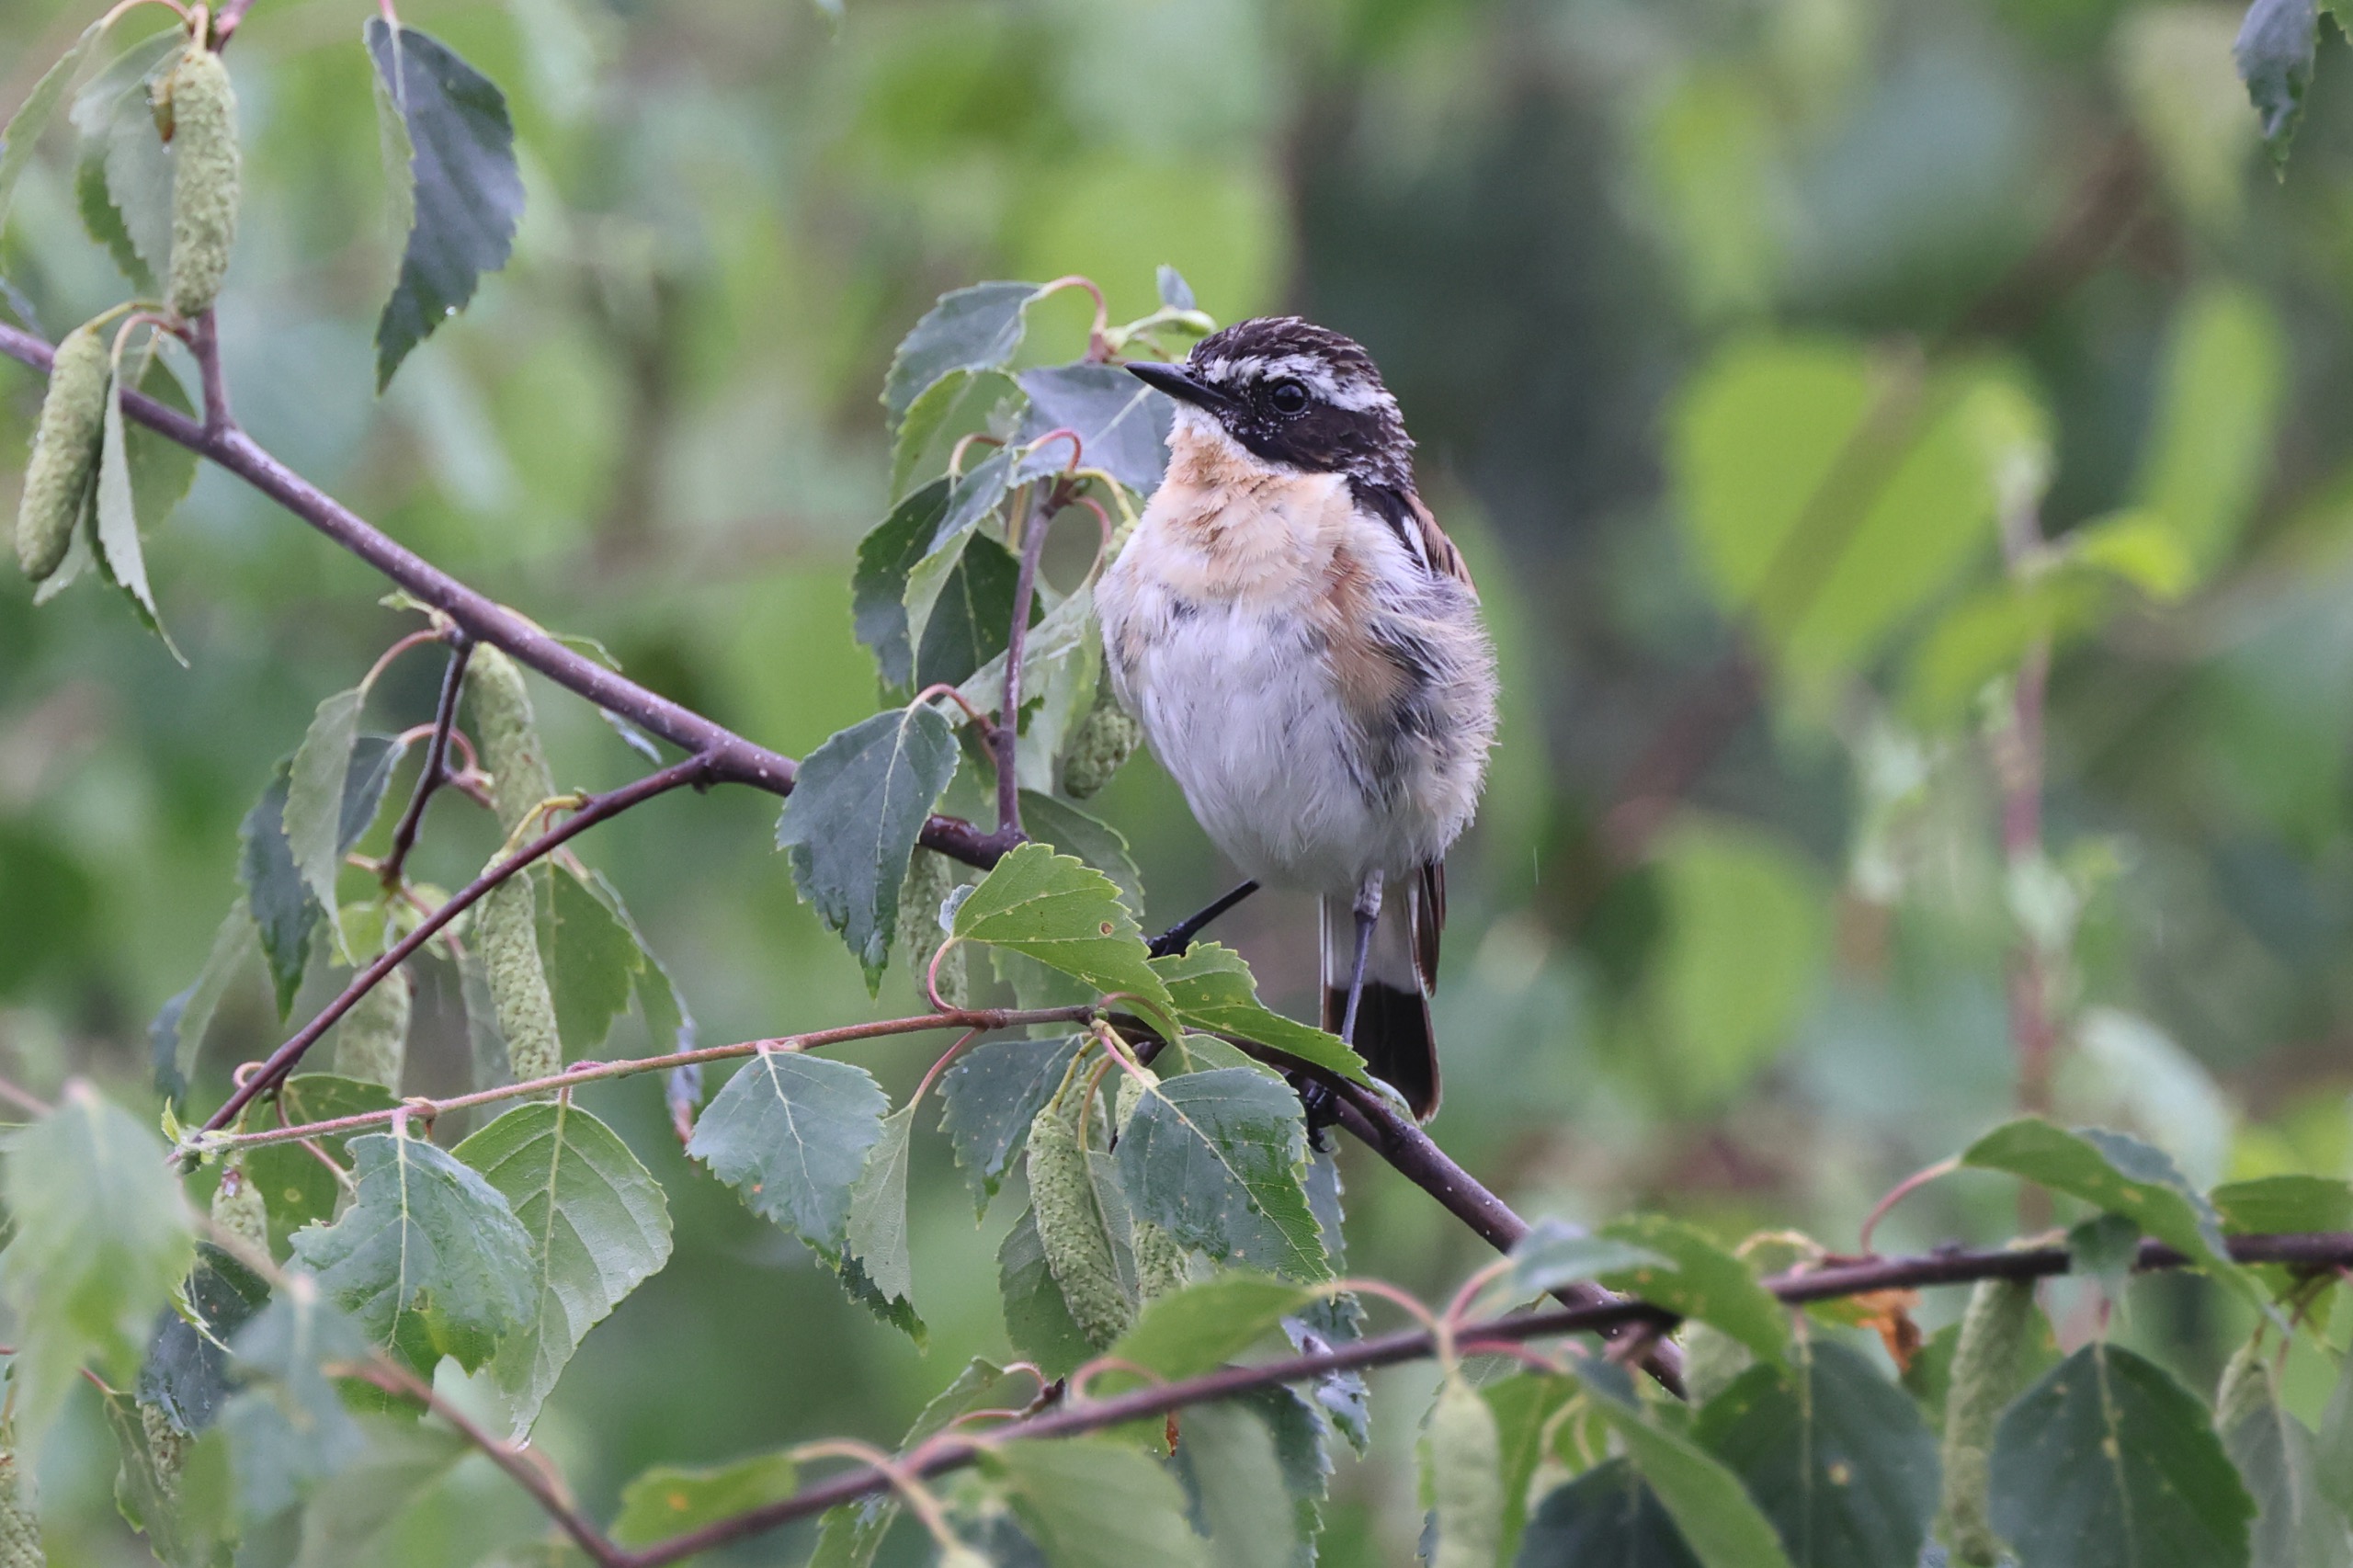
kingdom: Animalia
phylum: Chordata
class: Aves
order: Passeriformes
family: Muscicapidae
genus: Saxicola
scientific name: Saxicola rubetra
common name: Bynkefugl
